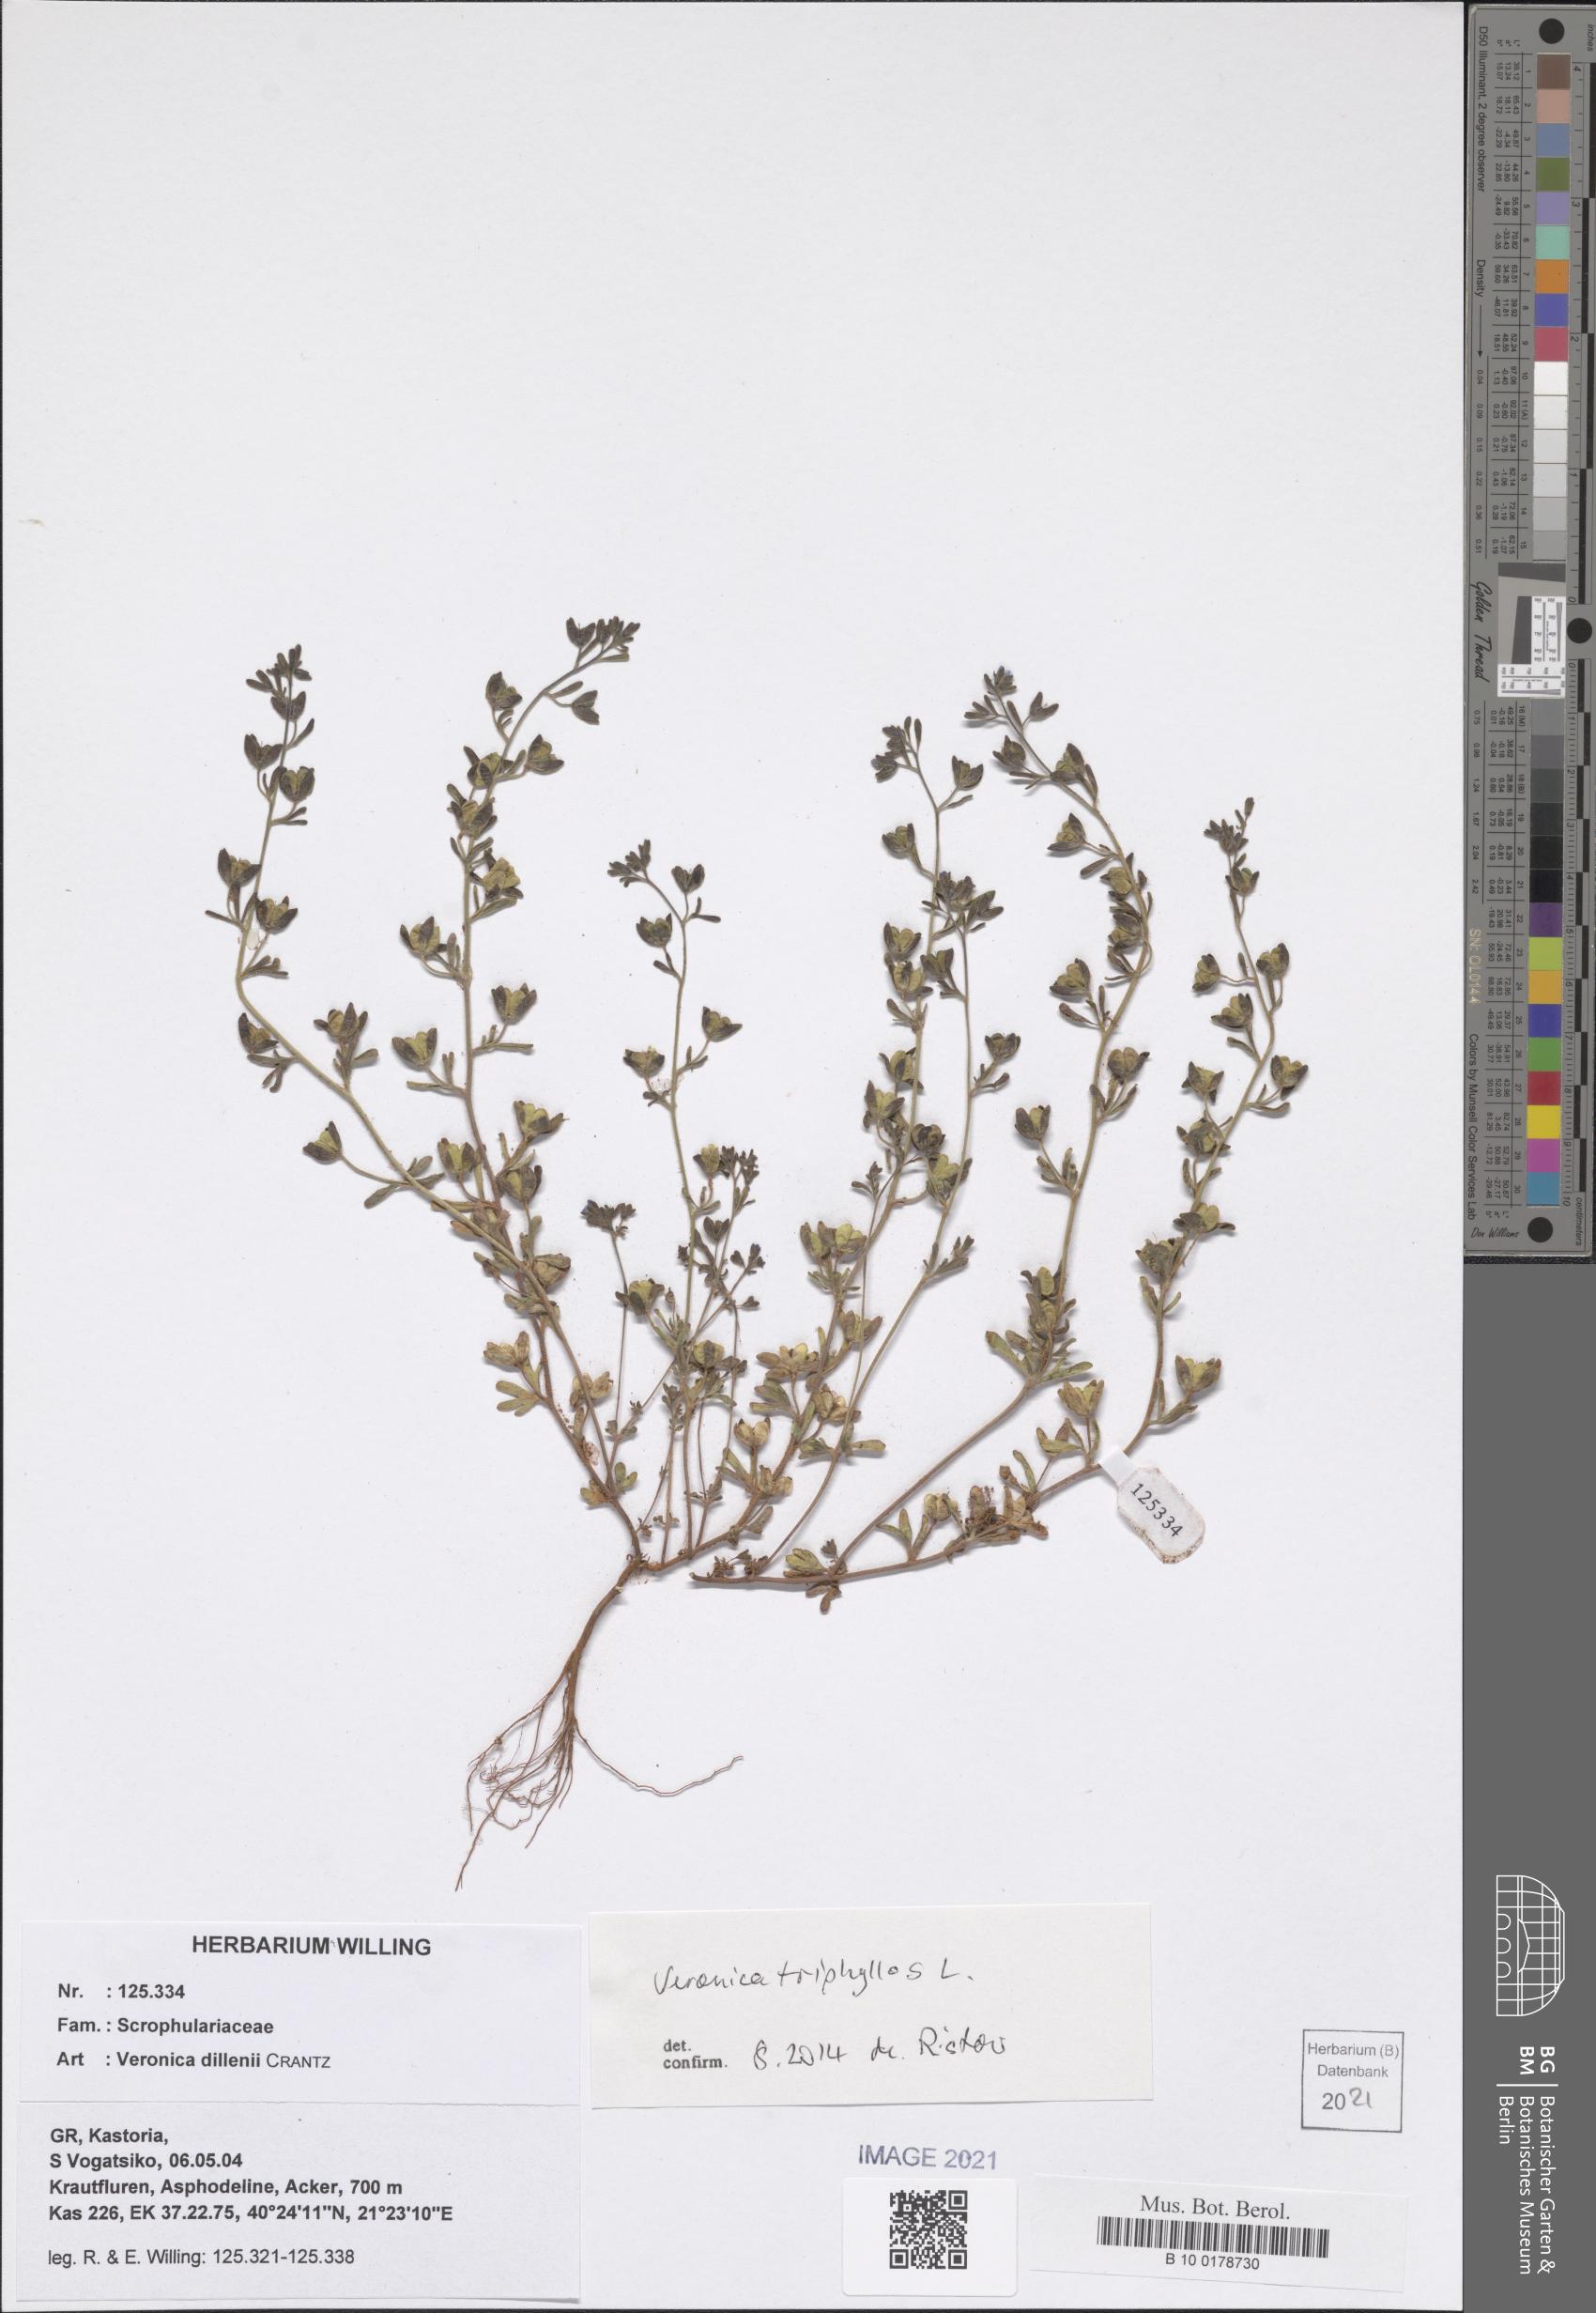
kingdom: Plantae
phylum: Tracheophyta
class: Magnoliopsida
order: Lamiales
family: Plantaginaceae
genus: Veronica
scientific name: Veronica triphyllos
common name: Fingered speedwell
